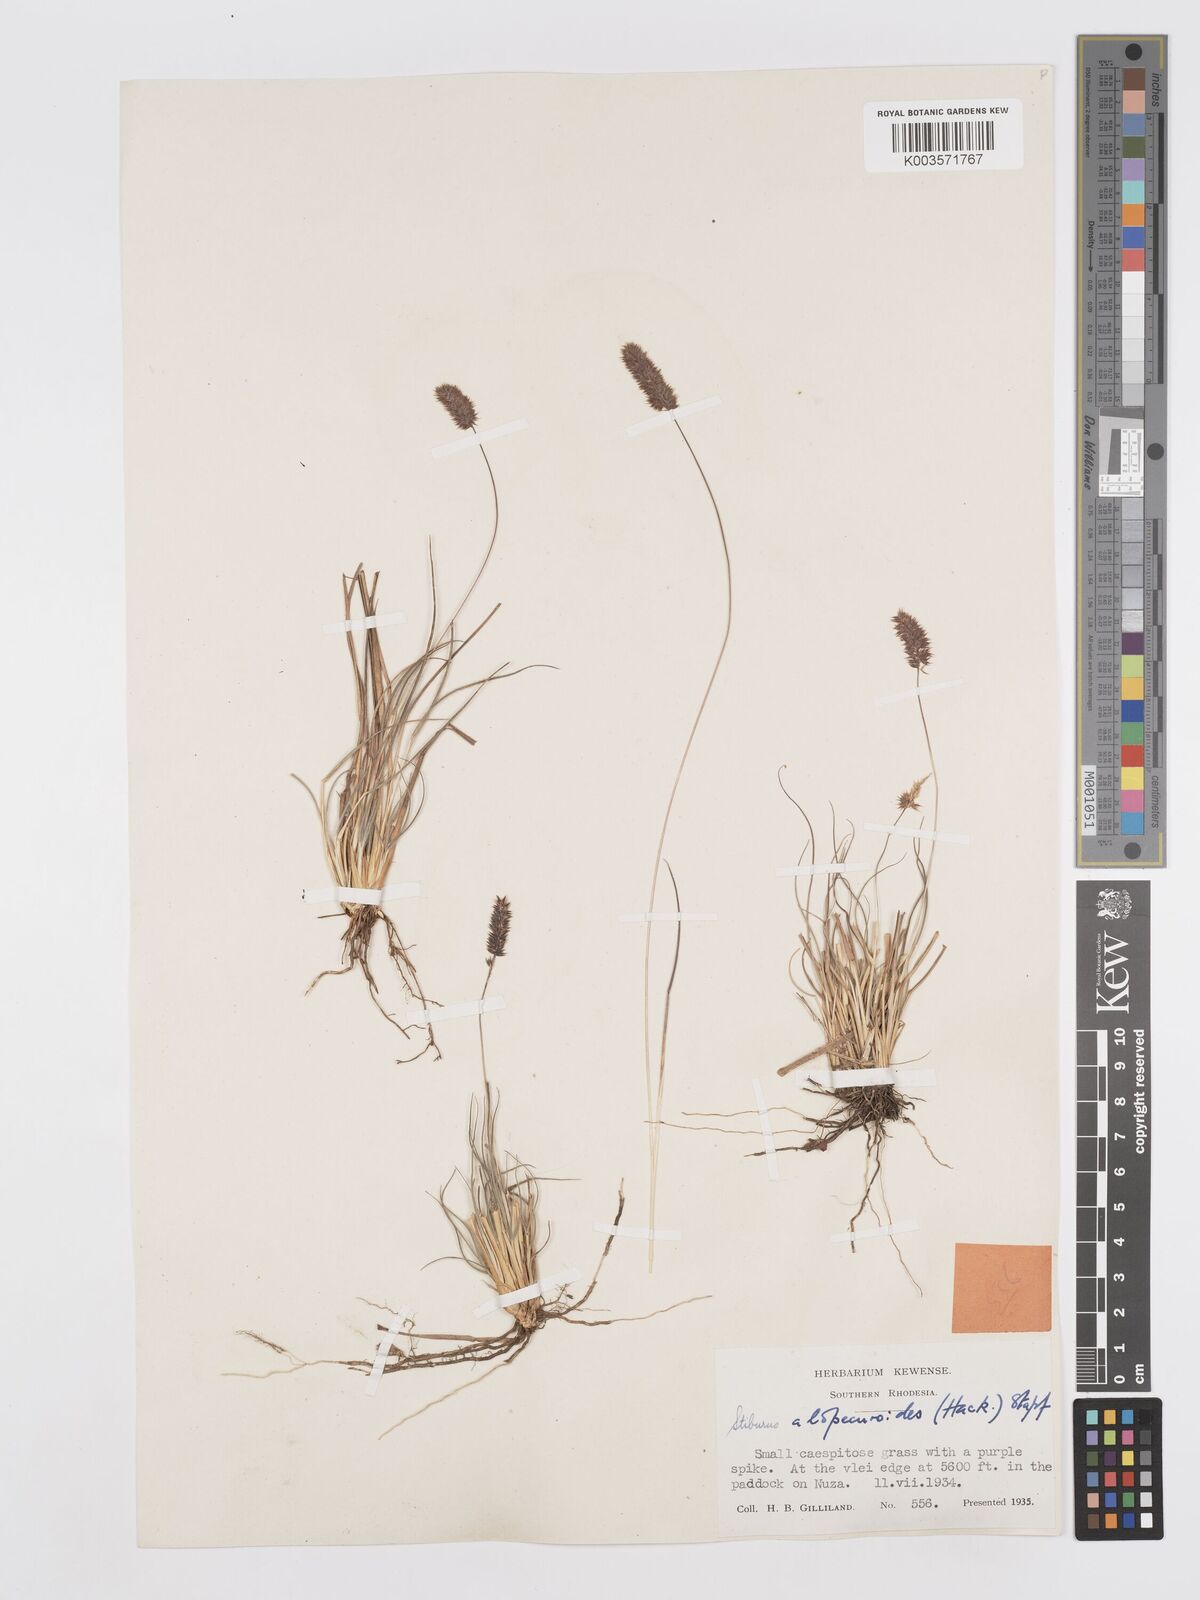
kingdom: Plantae
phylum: Tracheophyta
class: Liliopsida
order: Poales
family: Poaceae
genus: Stiburus
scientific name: Stiburus alopecuroides
